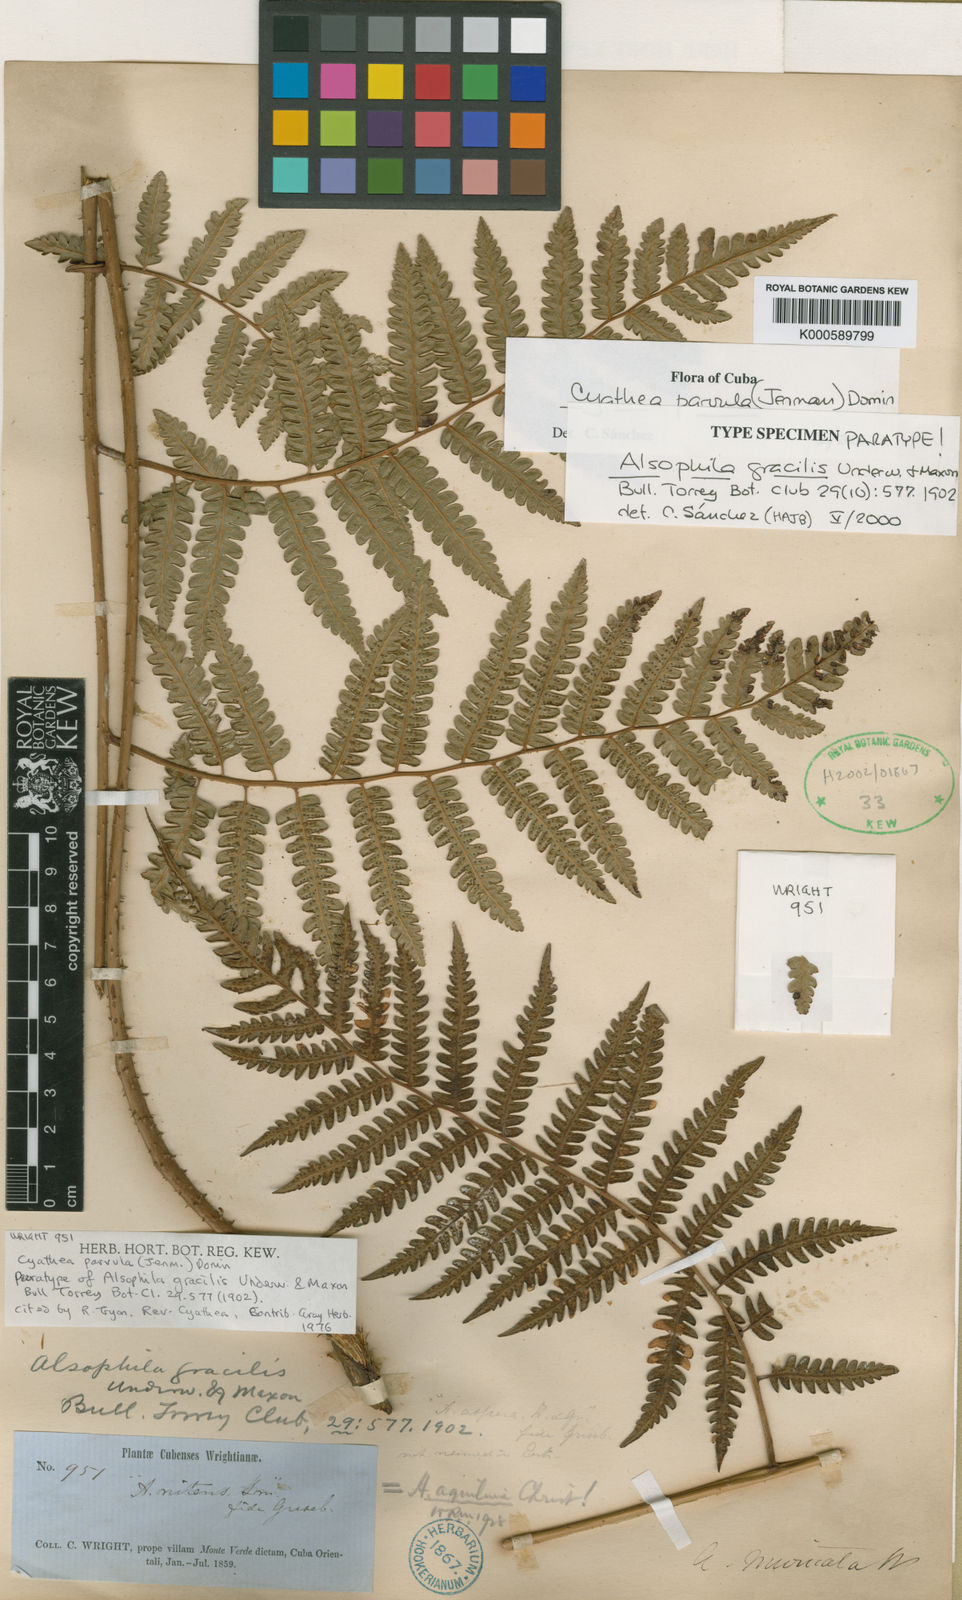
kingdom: Plantae
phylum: Tracheophyta
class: Polypodiopsida
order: Cyatheales
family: Cyatheaceae
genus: Cyathea
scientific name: Cyathea
